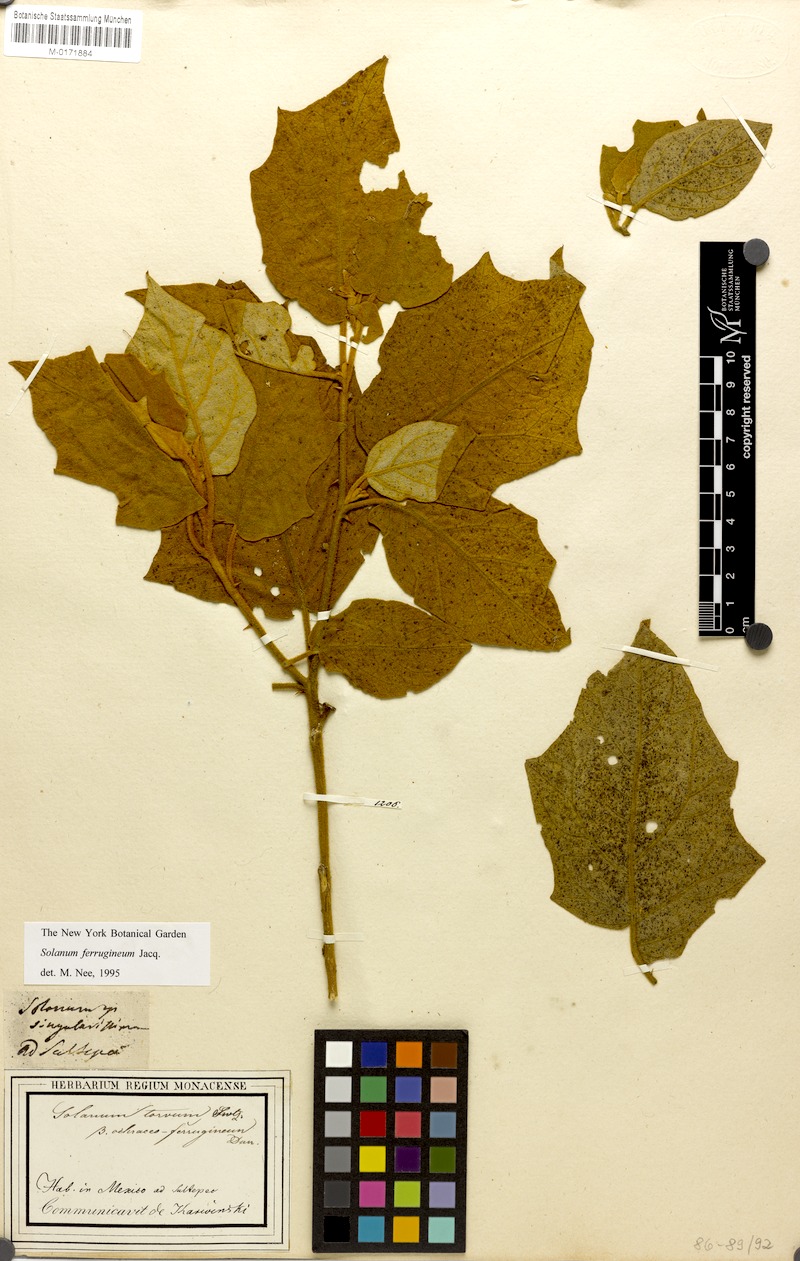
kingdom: Plantae
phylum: Tracheophyta
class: Magnoliopsida
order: Solanales
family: Solanaceae
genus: Solanum
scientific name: Solanum ferrugineum
